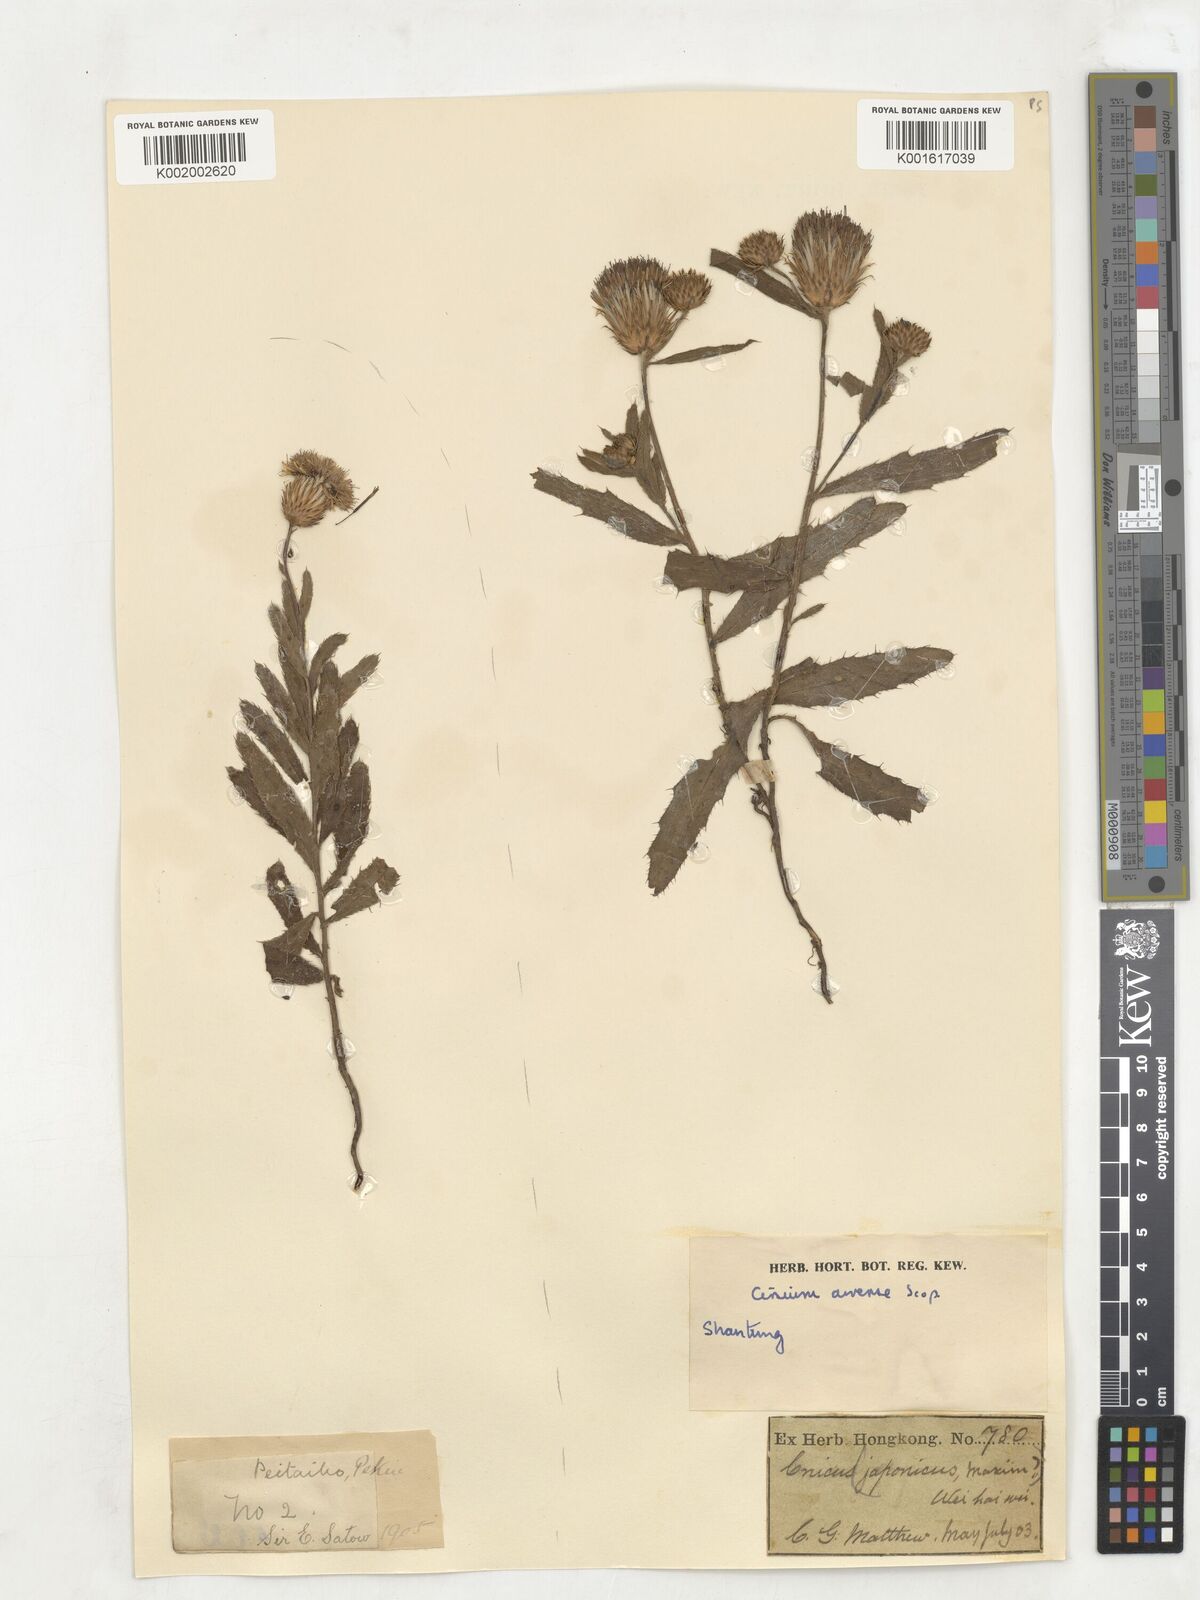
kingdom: Plantae
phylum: Tracheophyta
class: Magnoliopsida
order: Asterales
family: Asteraceae
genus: Cirsium
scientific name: Cirsium japonicum
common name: Japanese thistle
